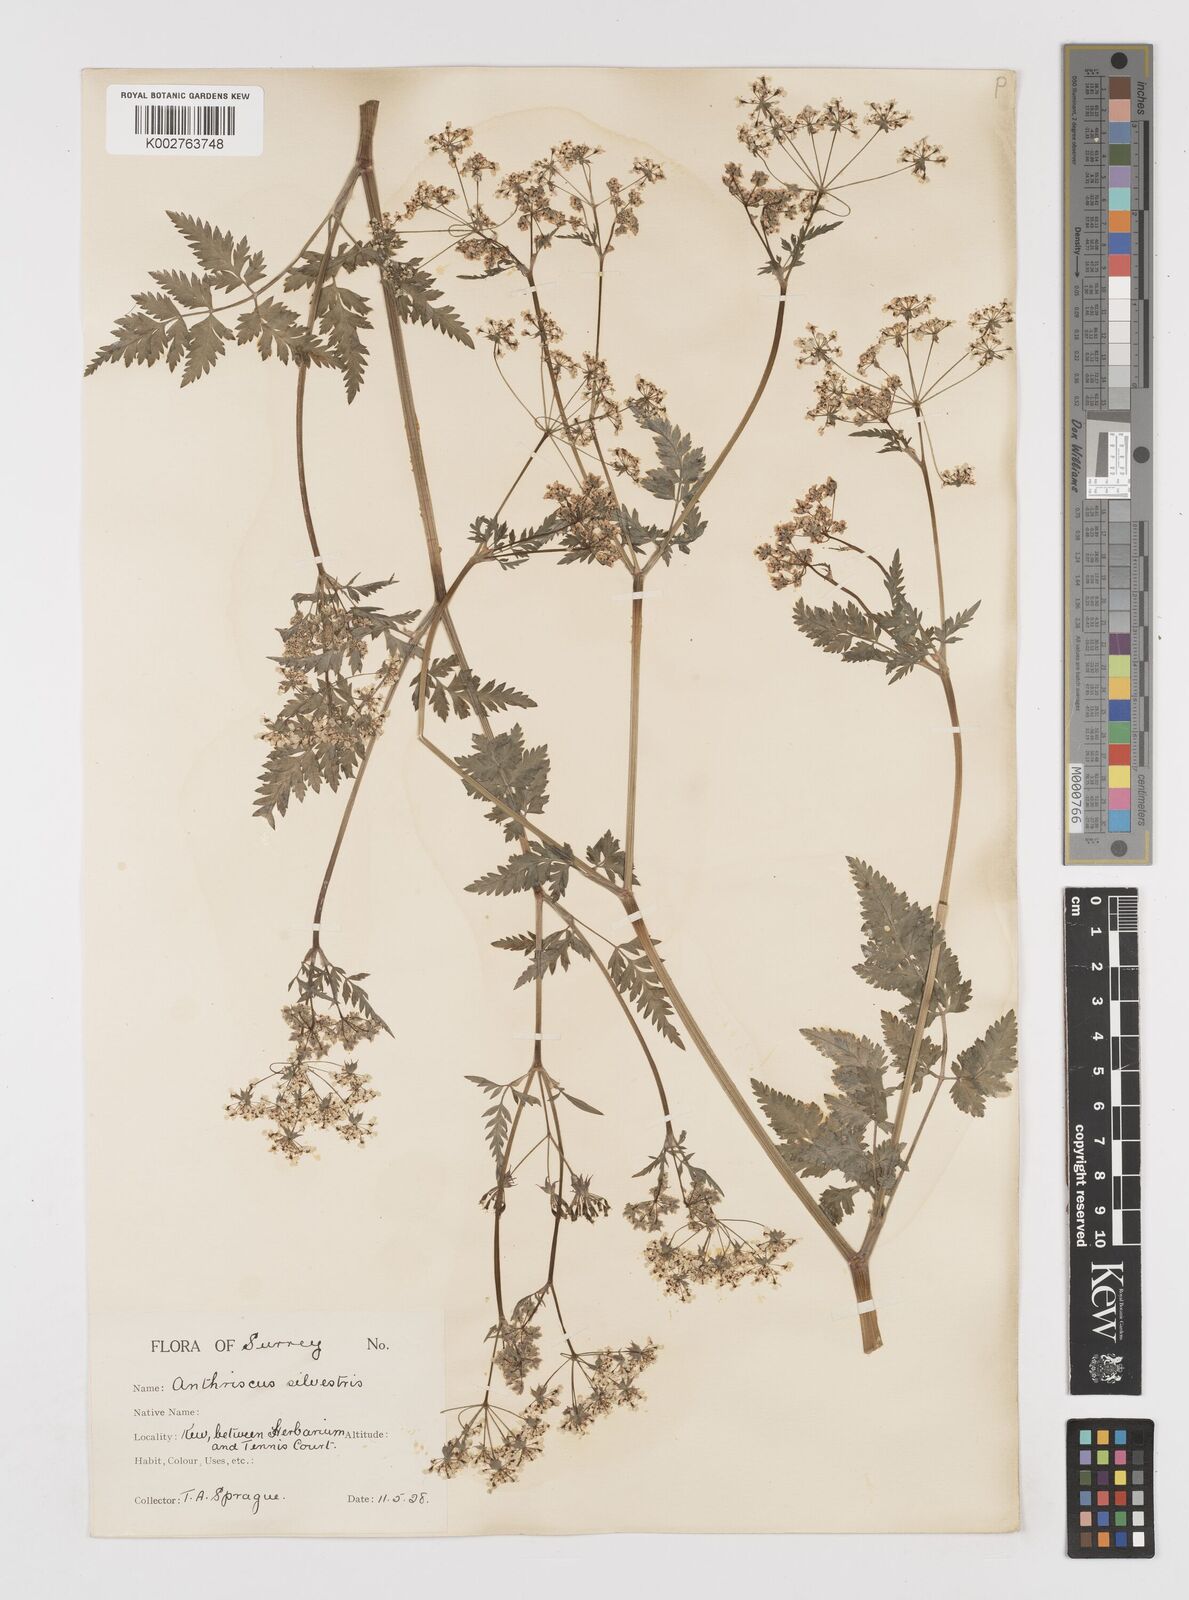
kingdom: Plantae
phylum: Tracheophyta
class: Magnoliopsida
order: Apiales
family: Apiaceae
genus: Anthriscus
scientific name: Anthriscus sylvestris
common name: Cow parsley
